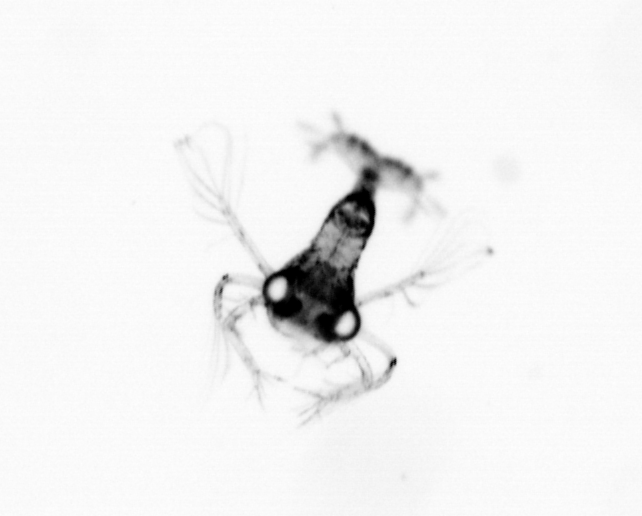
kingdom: Animalia
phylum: Arthropoda
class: Malacostraca
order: Decapoda
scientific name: Decapoda
